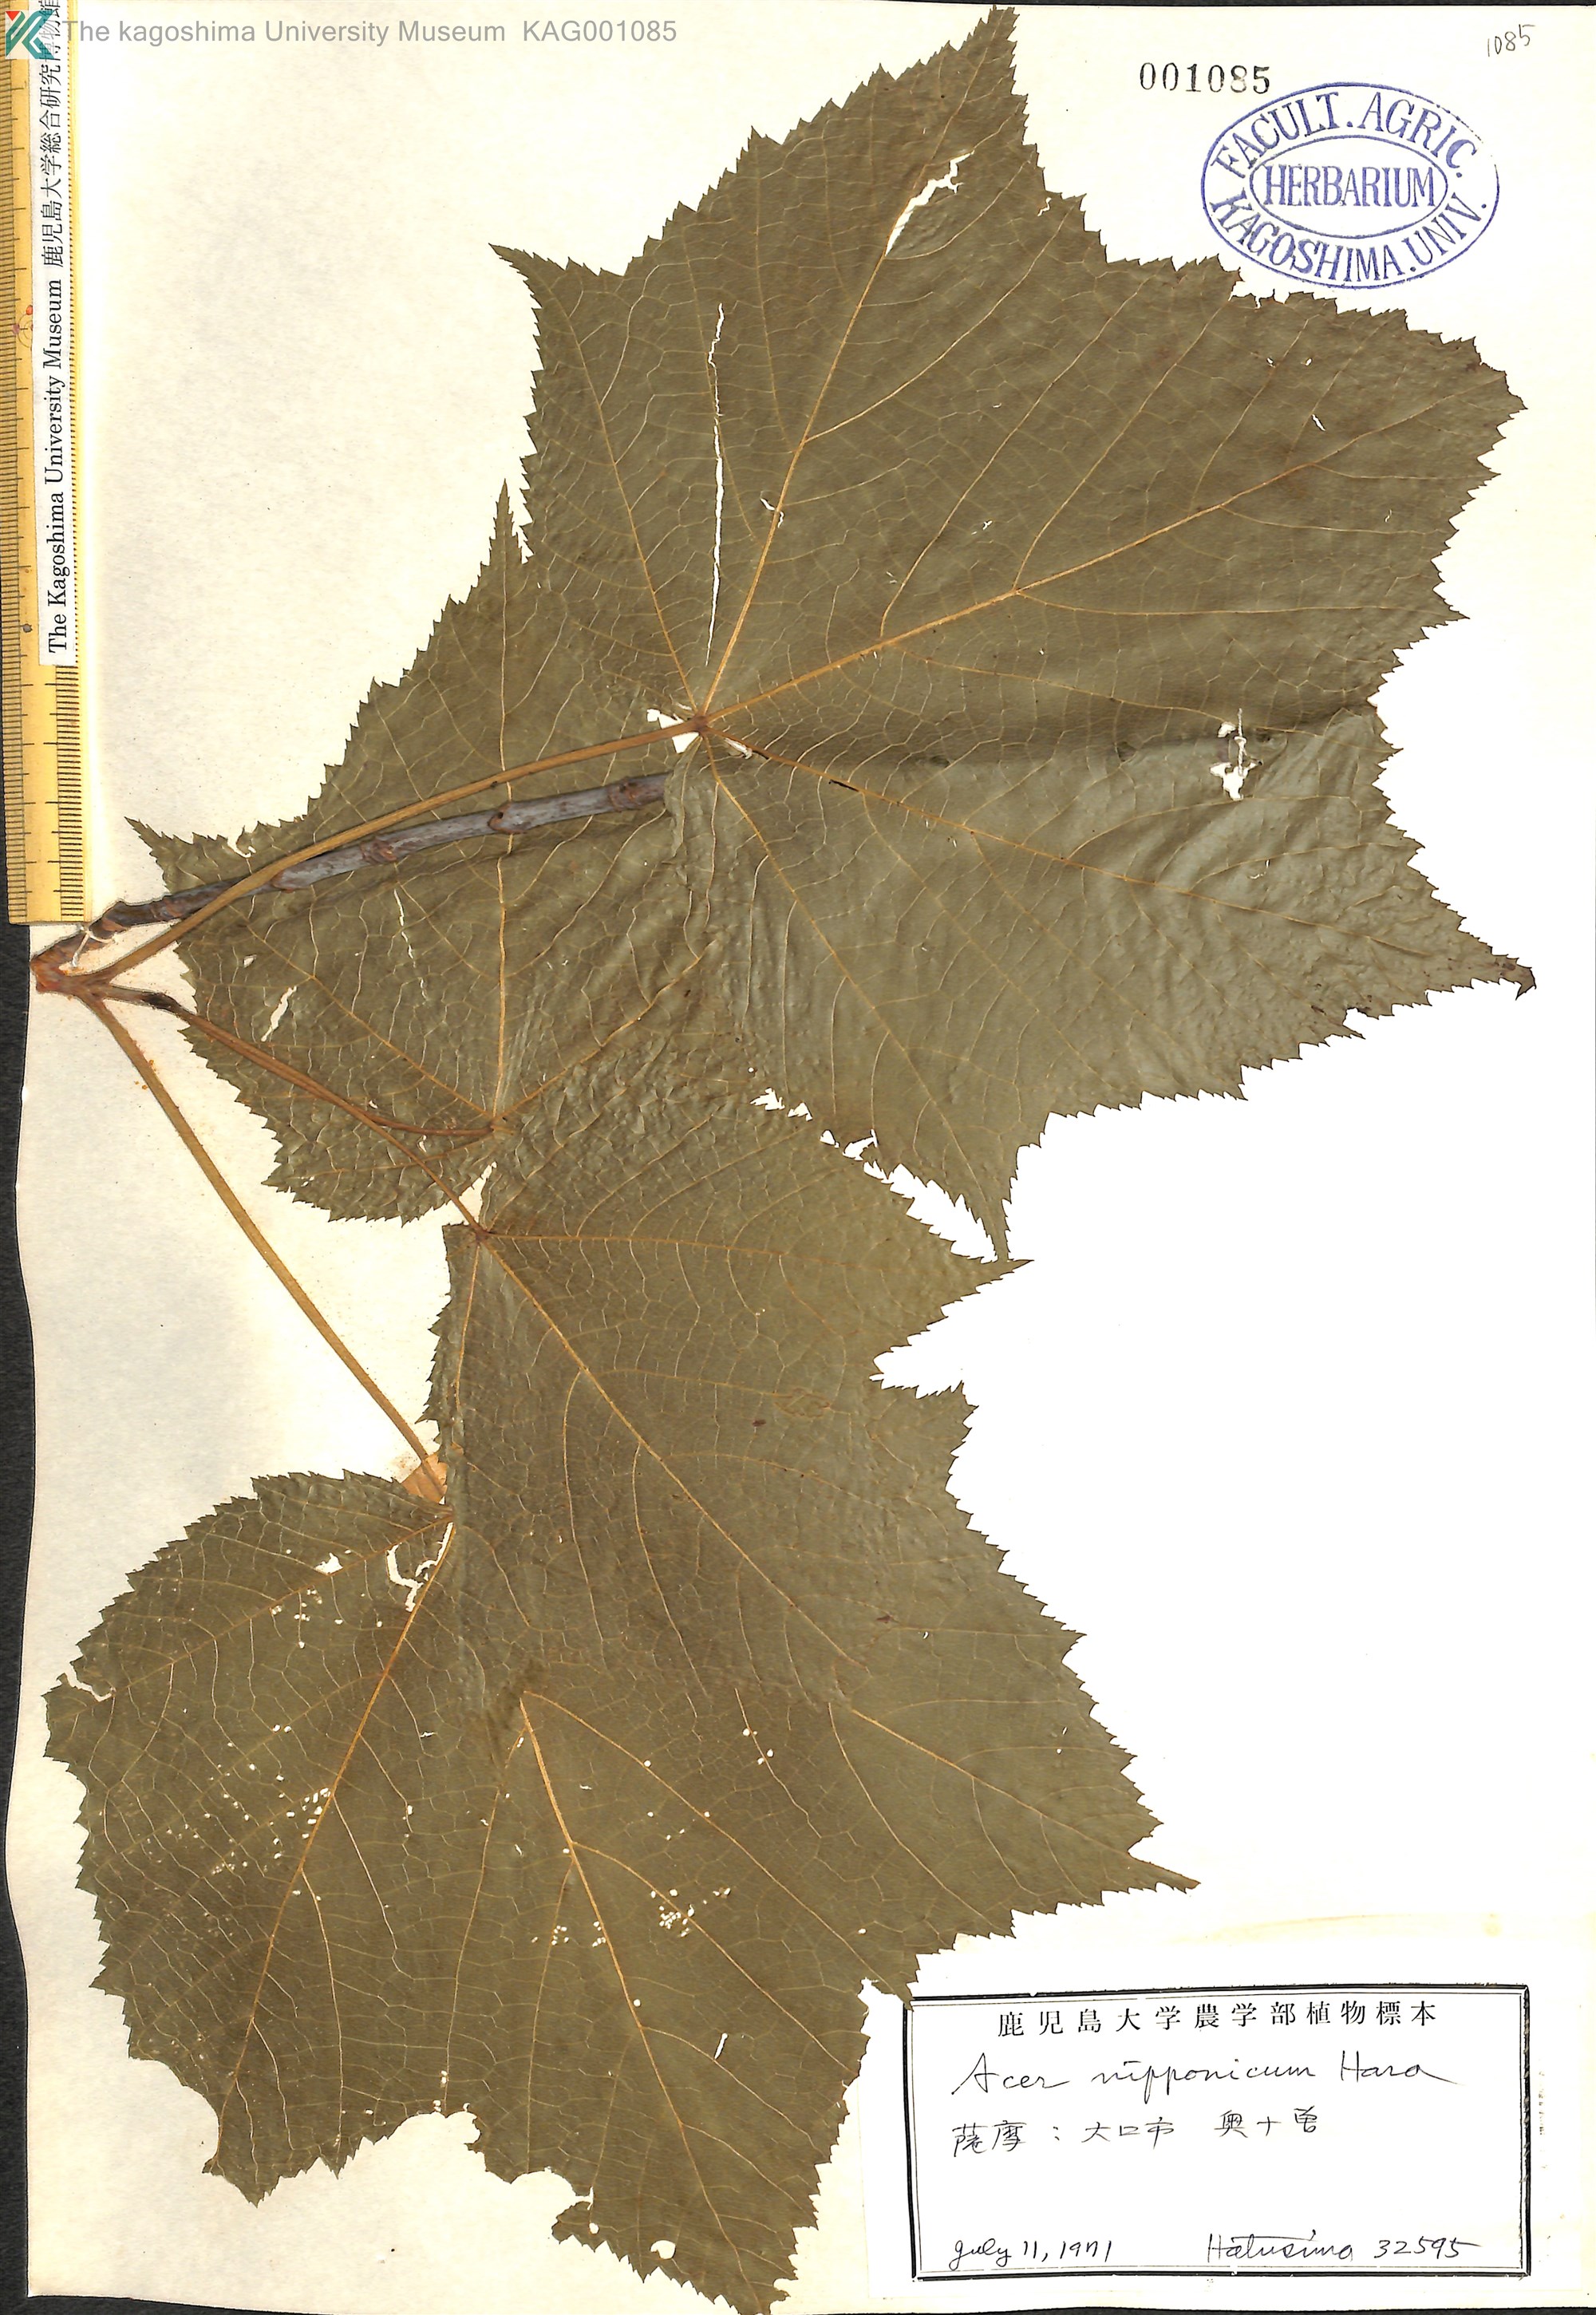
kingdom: Plantae
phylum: Tracheophyta
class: Magnoliopsida
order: Sapindales
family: Sapindaceae
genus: Acer
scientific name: Acer nipponicum
